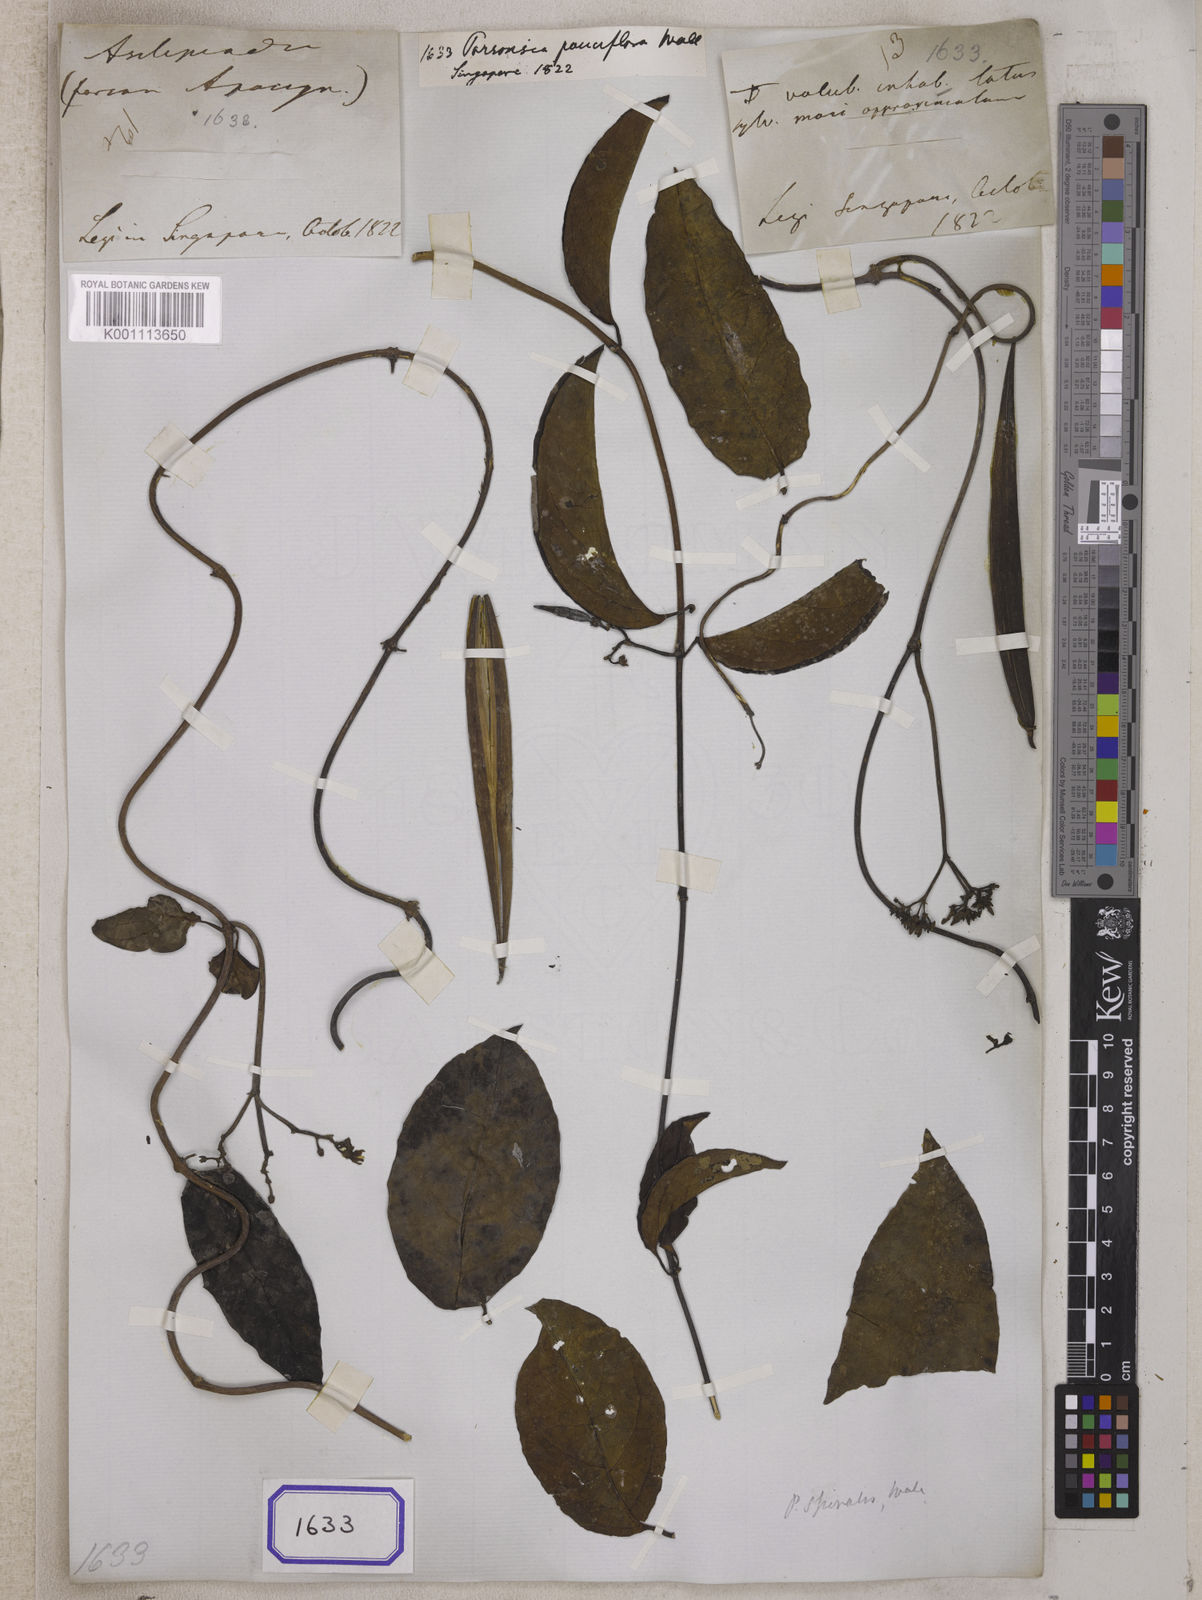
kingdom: Plantae
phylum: Tracheophyta
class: Magnoliopsida
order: Gentianales
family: Apocynaceae
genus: Parsonsia
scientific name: Parsonsia alboflavescens
